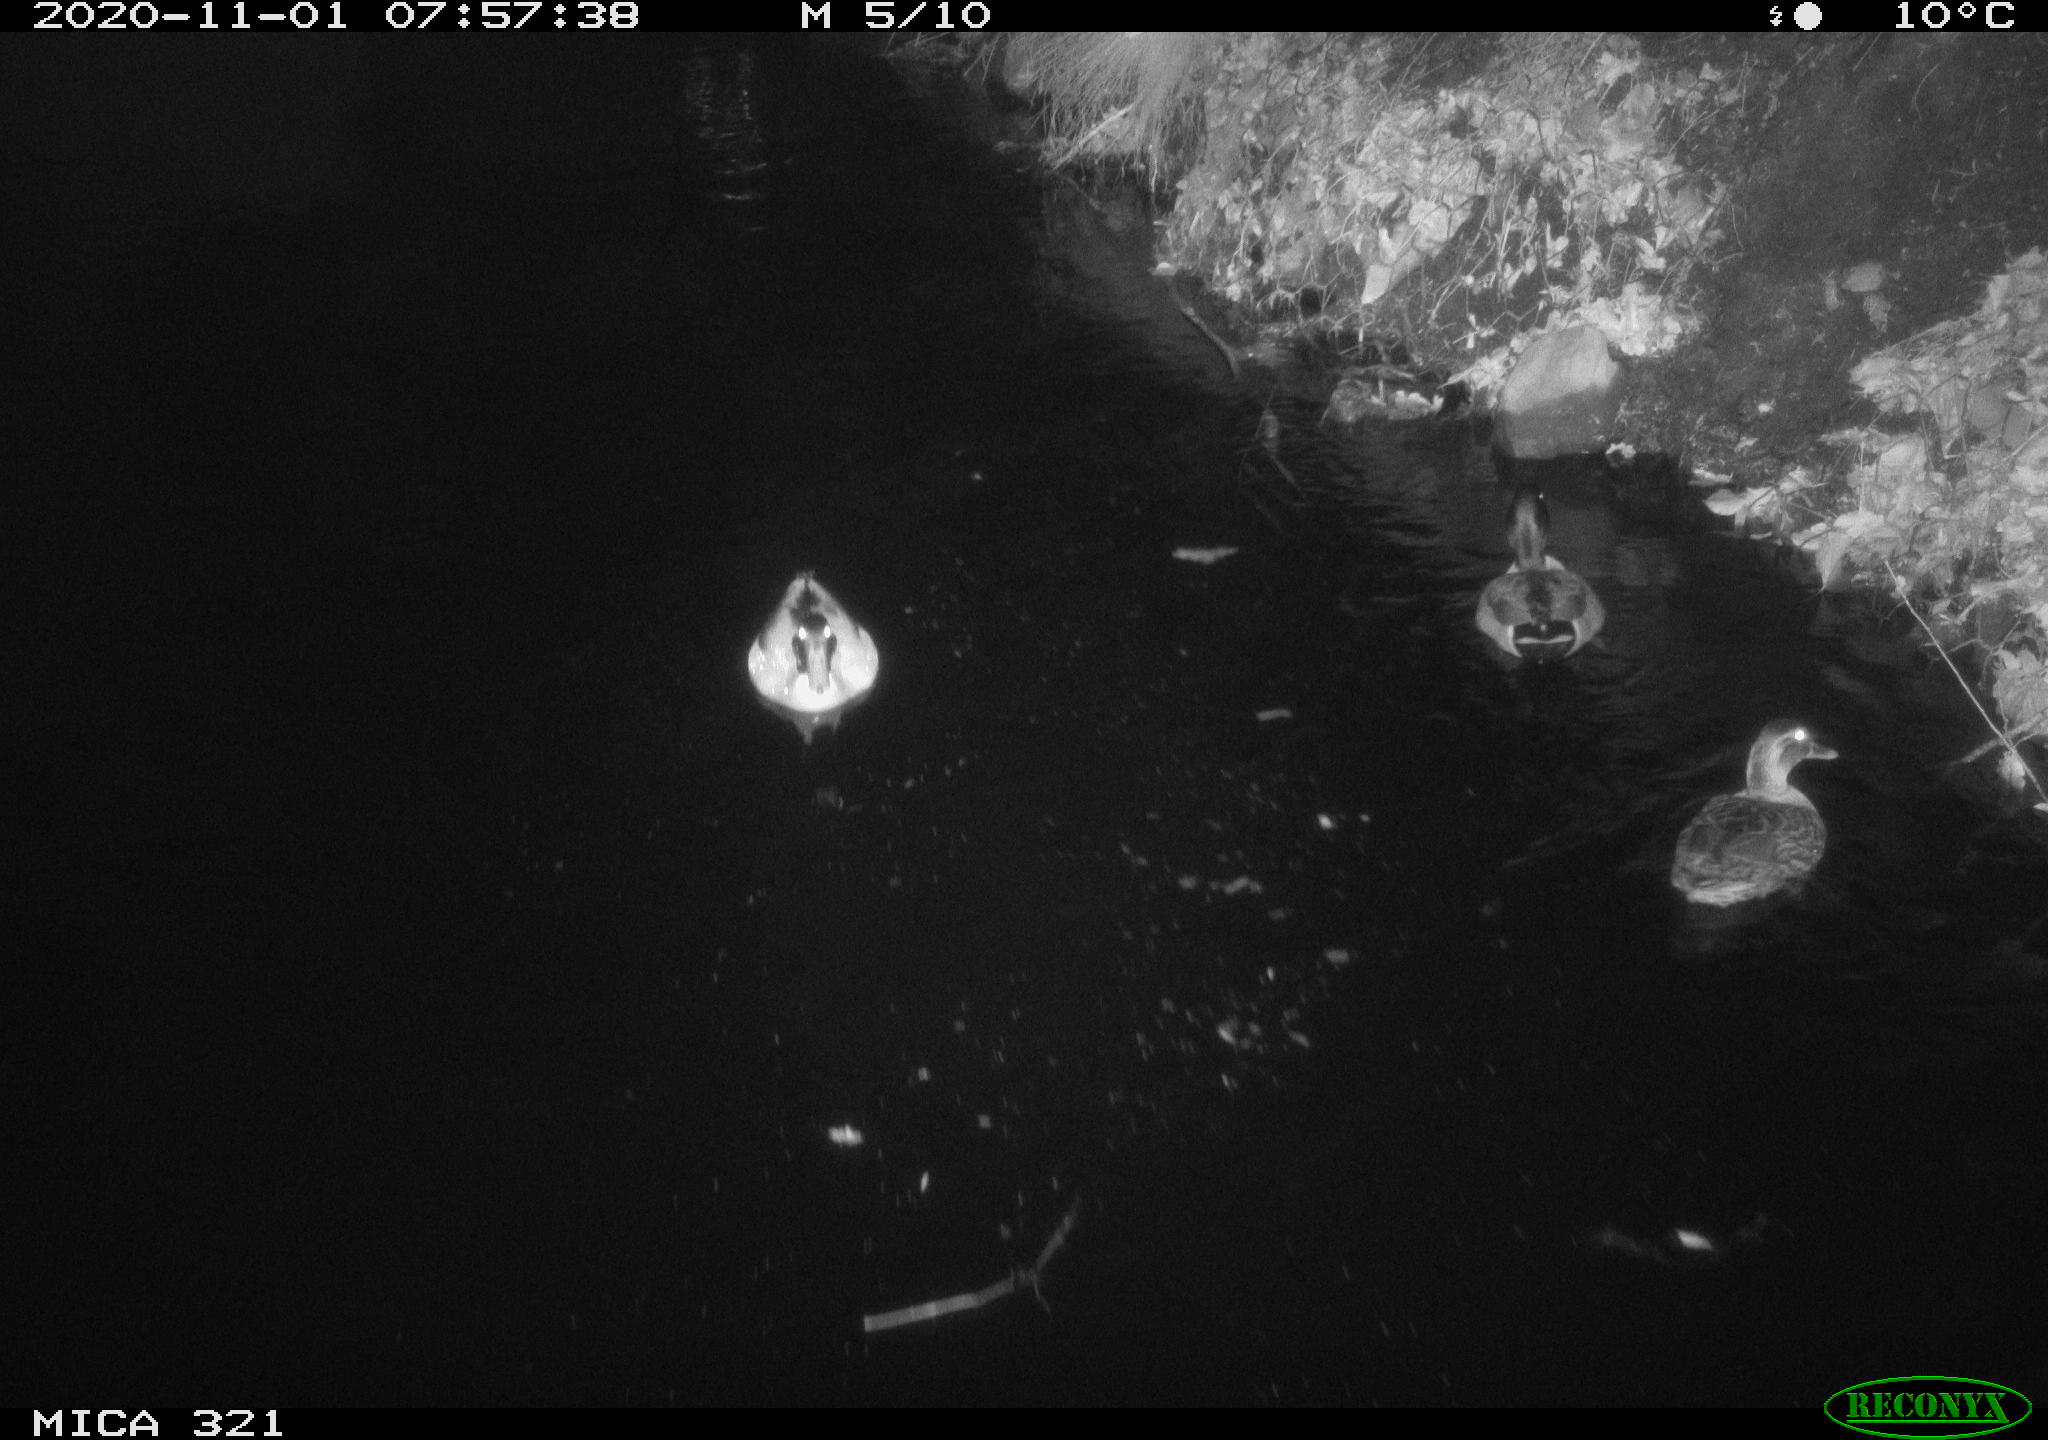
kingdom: Animalia
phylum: Chordata
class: Aves
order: Anseriformes
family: Anatidae
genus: Anas
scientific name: Anas platyrhynchos
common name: Mallard
